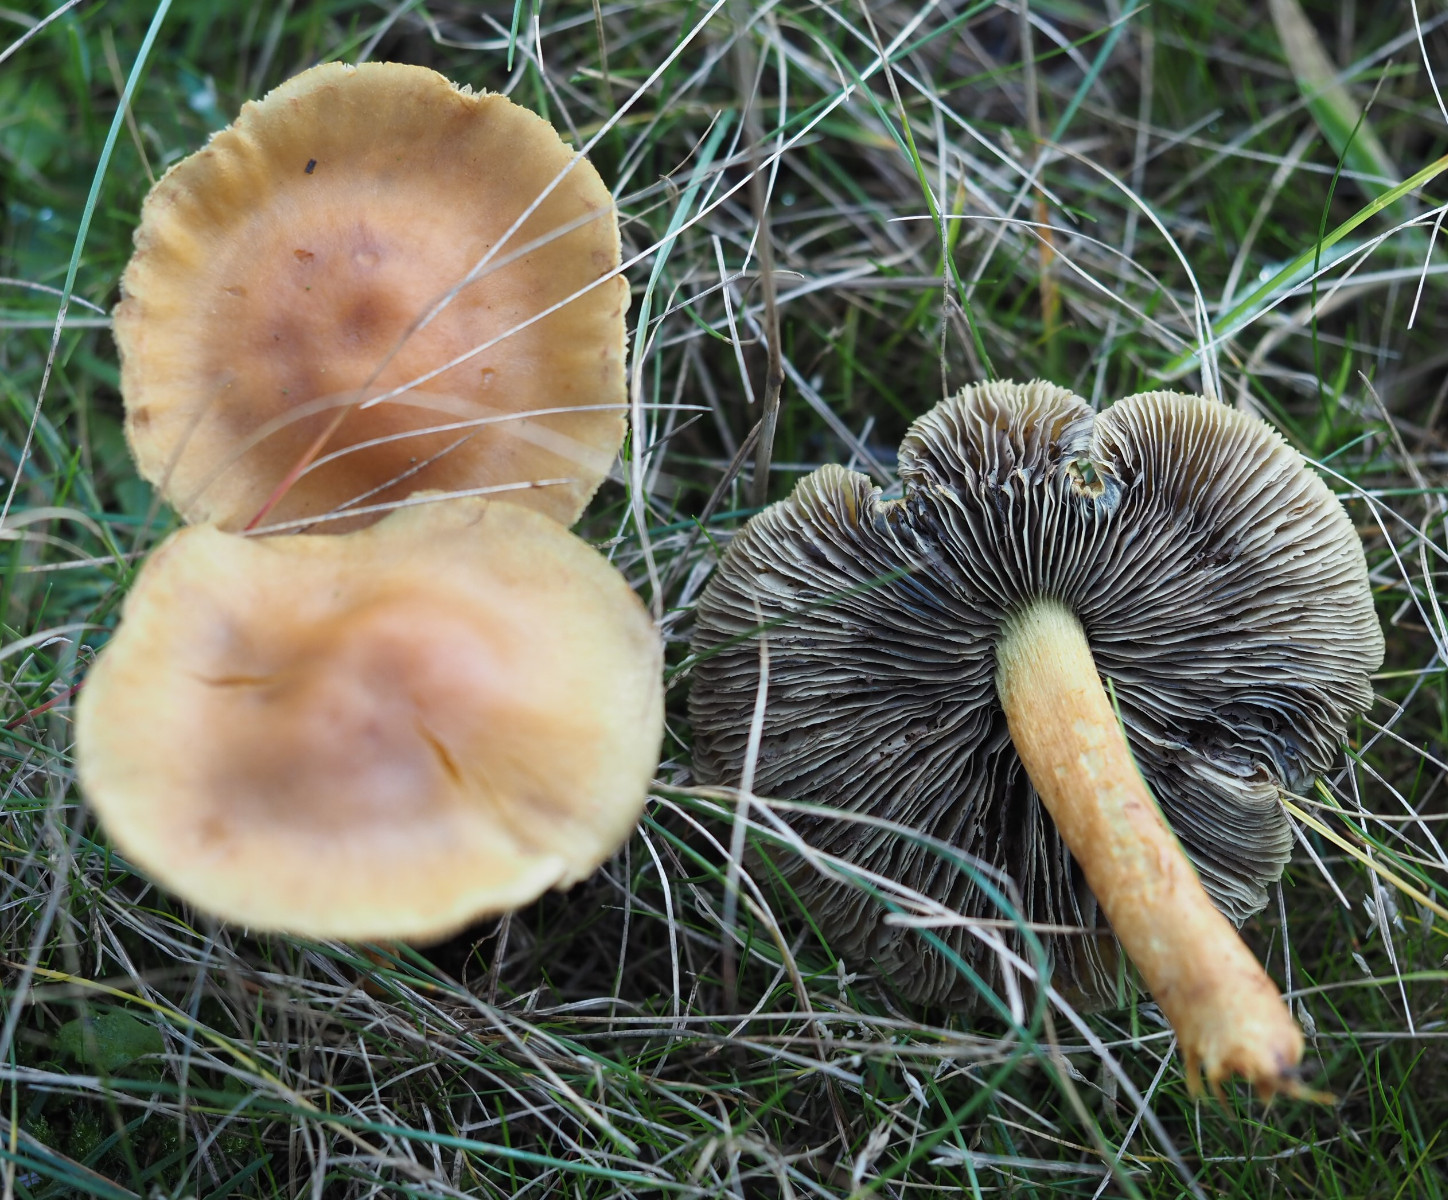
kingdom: Fungi
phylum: Basidiomycota
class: Agaricomycetes
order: Agaricales
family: Strophariaceae
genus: Hypholoma
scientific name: Hypholoma fasciculare
